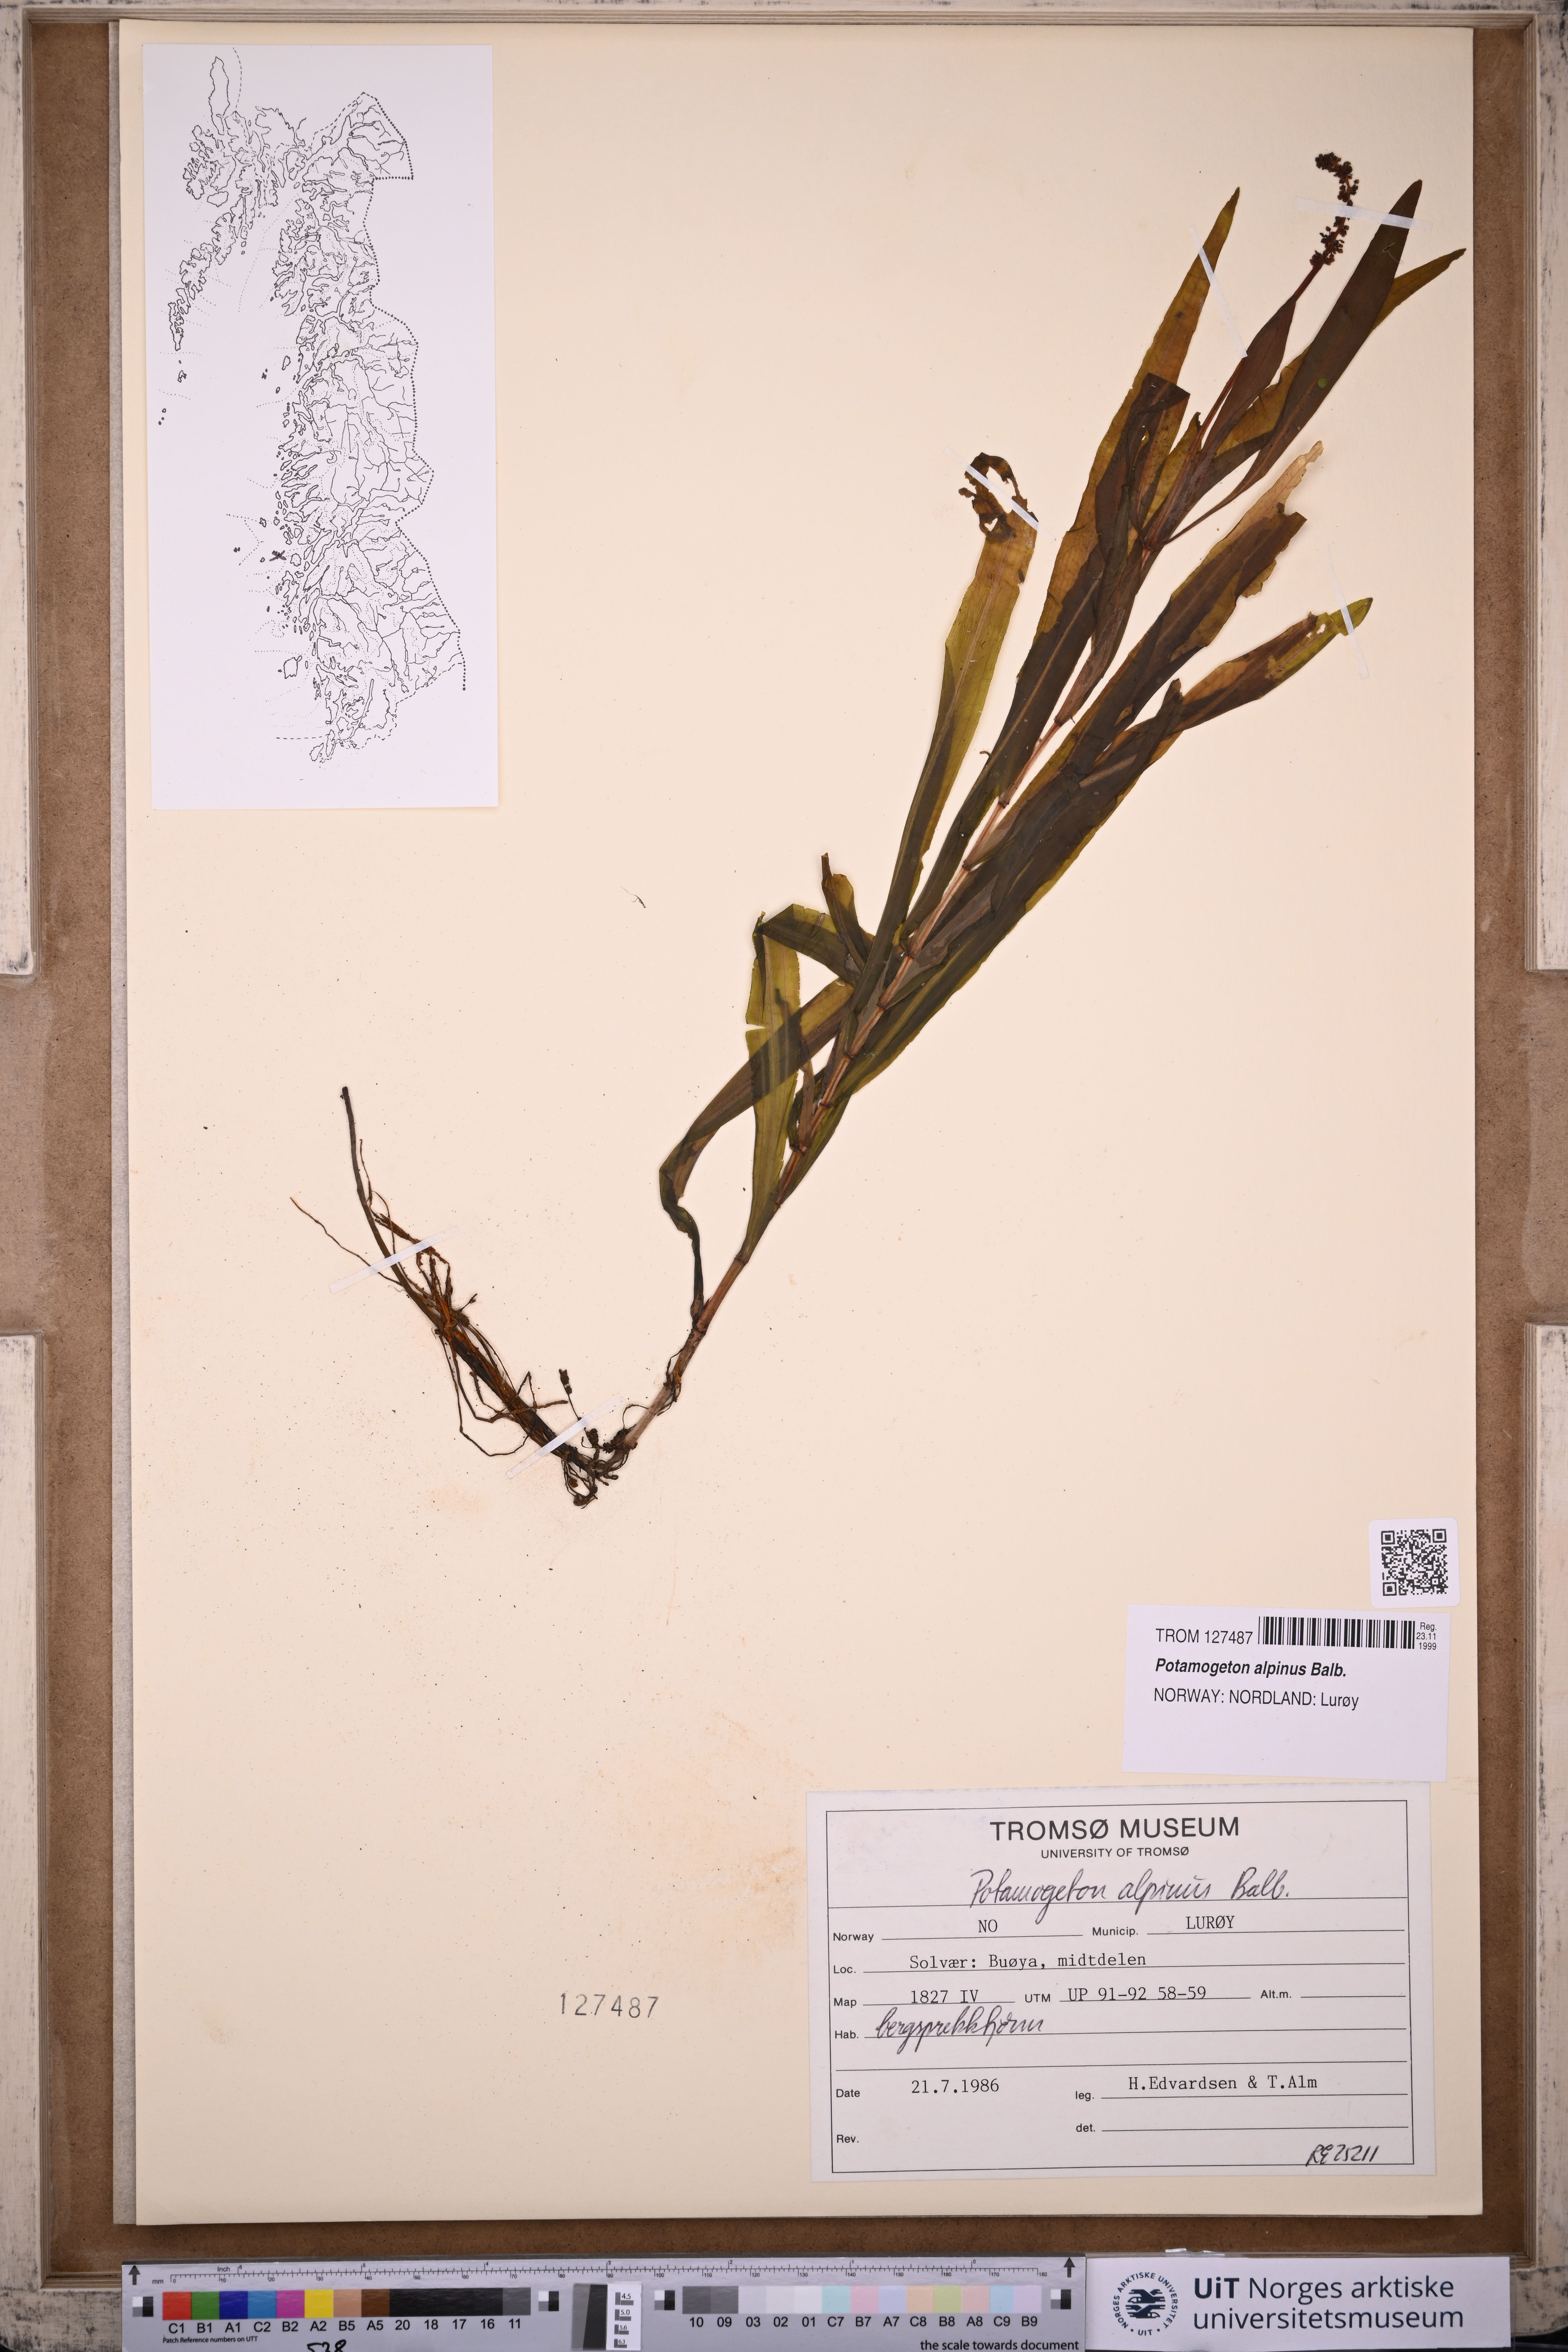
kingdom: Plantae
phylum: Tracheophyta
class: Liliopsida
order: Alismatales
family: Potamogetonaceae
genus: Potamogeton
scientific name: Potamogeton alpinus
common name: Red pondweed
